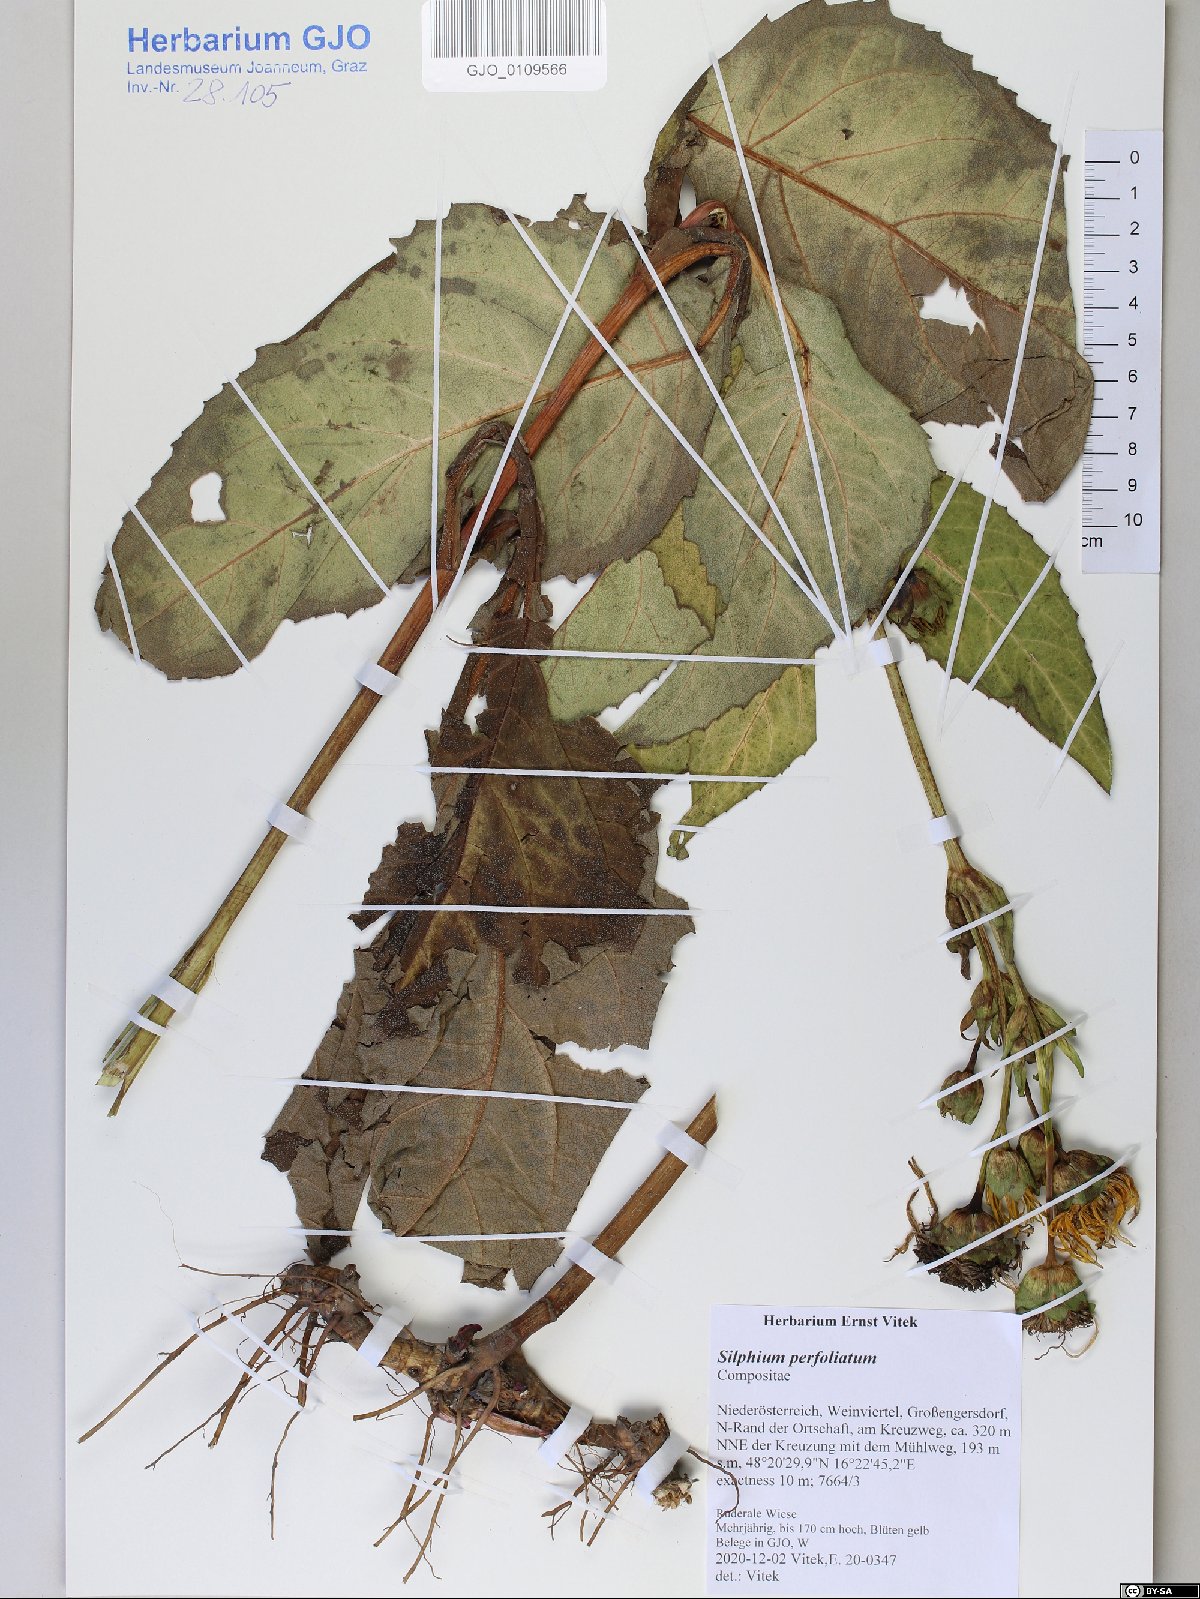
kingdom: Plantae
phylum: Tracheophyta
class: Magnoliopsida
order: Asterales
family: Asteraceae
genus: Silphium
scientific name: Silphium perfoliatum
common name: Cup-plant
